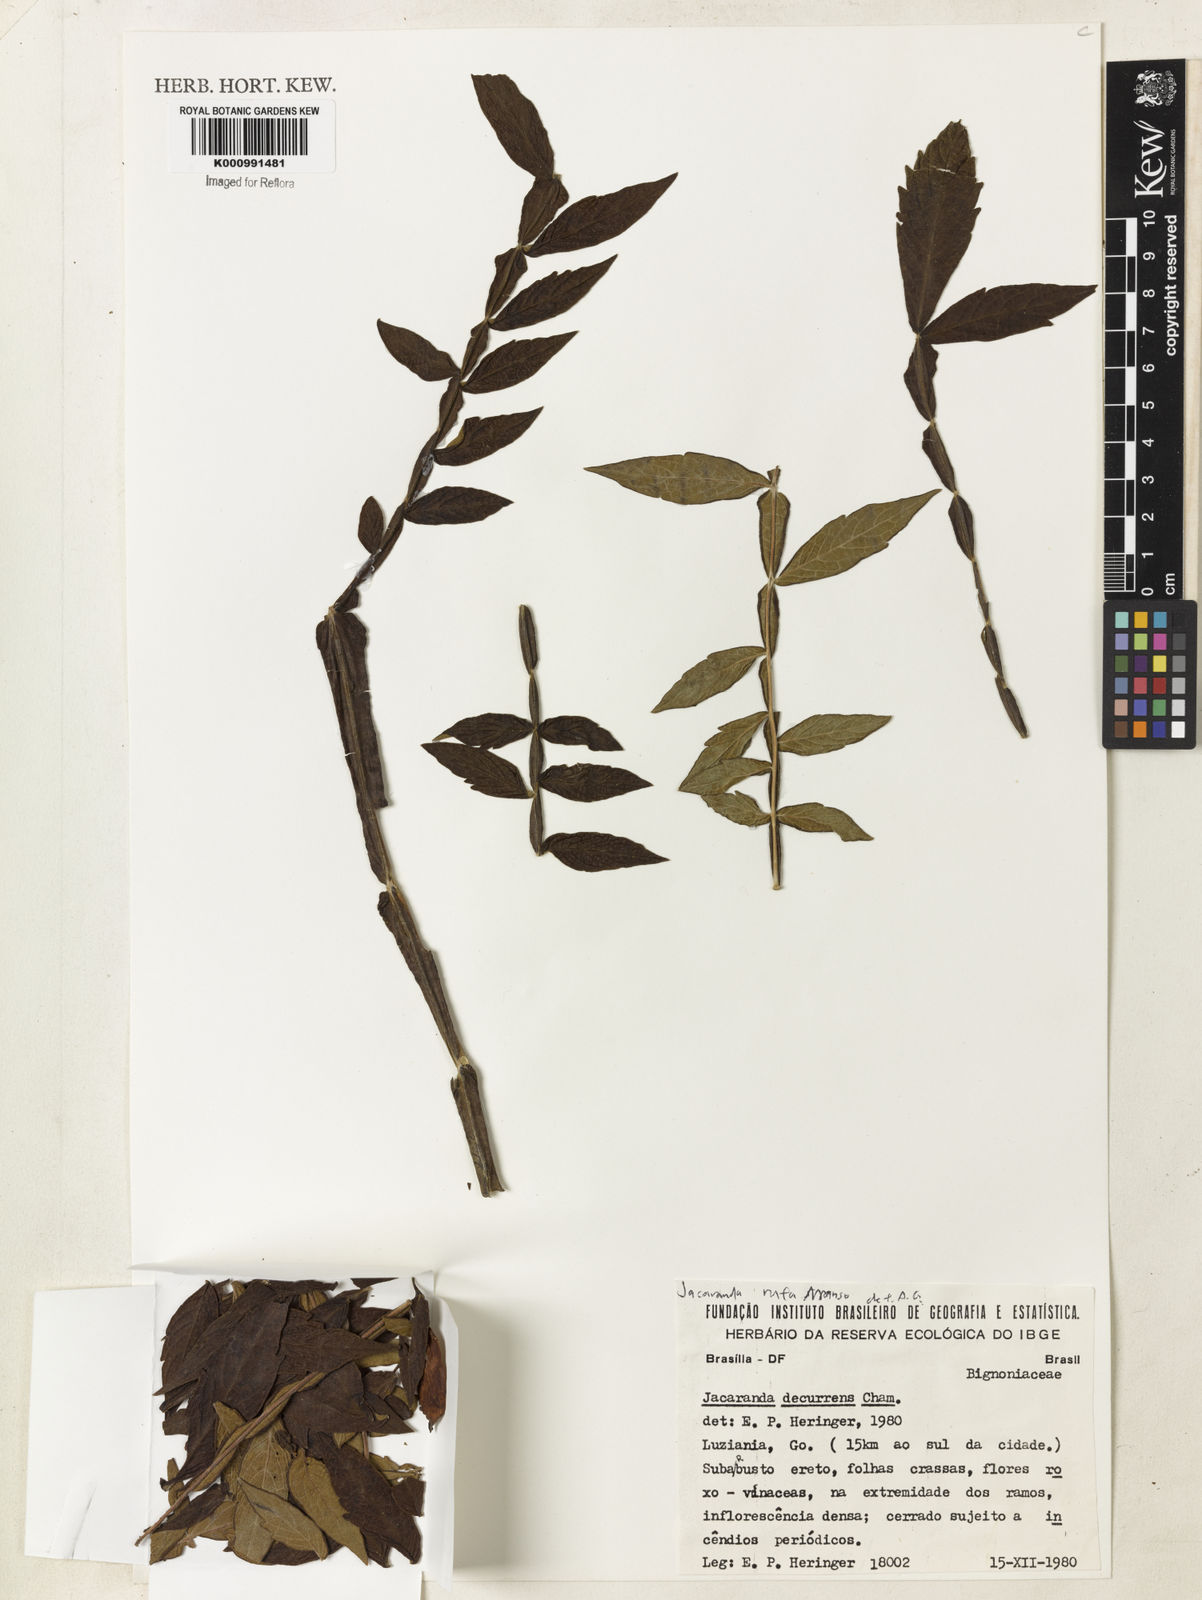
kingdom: Plantae
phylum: Tracheophyta
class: Magnoliopsida
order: Lamiales
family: Bignoniaceae
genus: Jacaranda
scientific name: Jacaranda rufa
